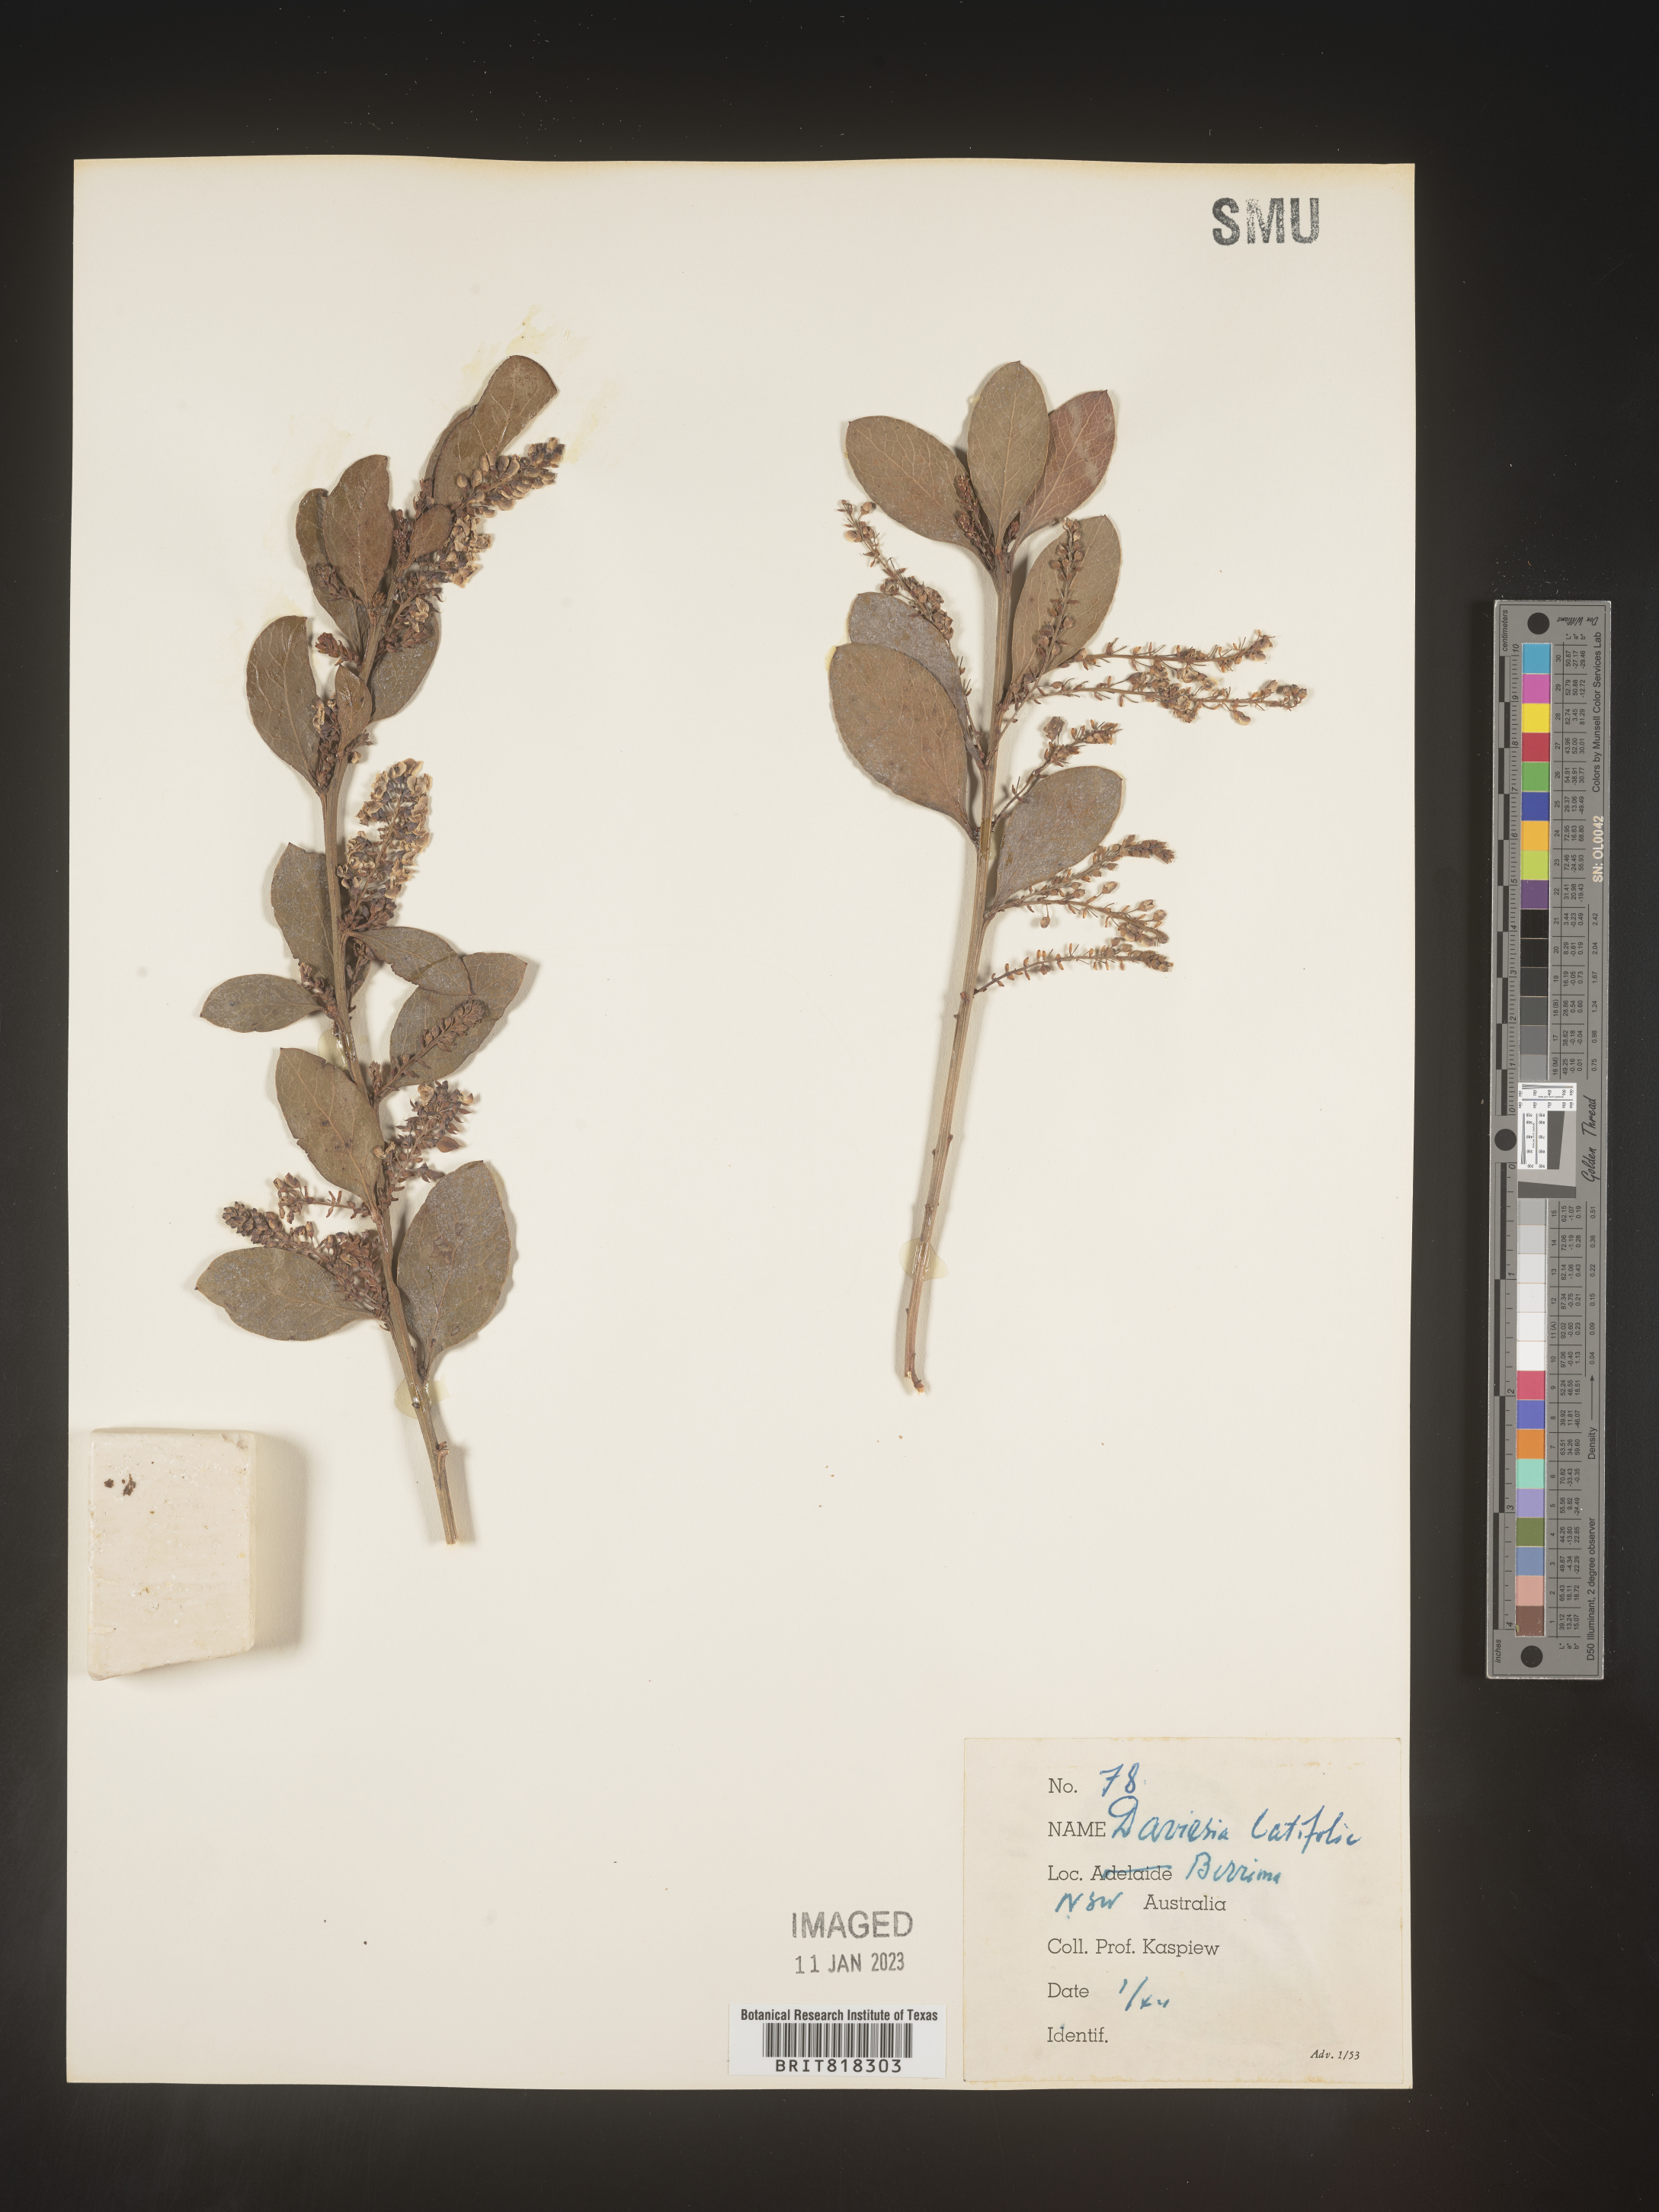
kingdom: Plantae
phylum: Tracheophyta
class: Magnoliopsida
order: Fabales
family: Fabaceae
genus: Daviesia
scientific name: Daviesia
